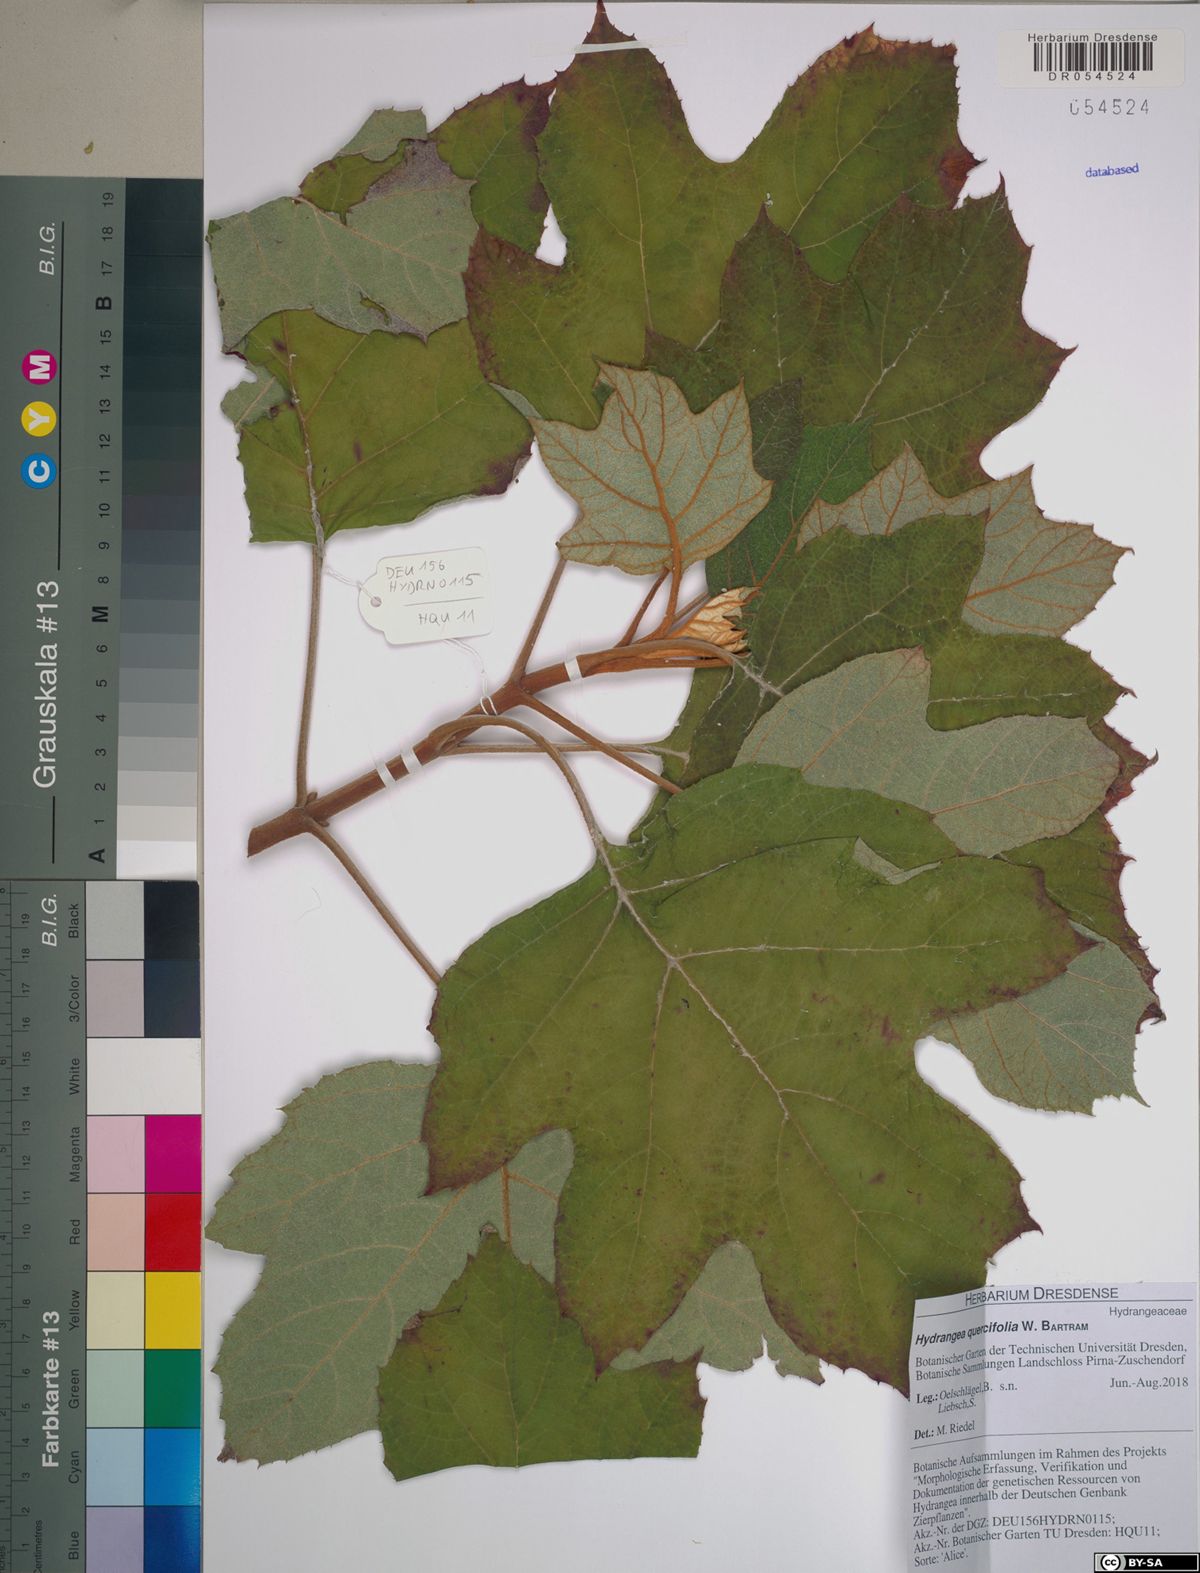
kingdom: Plantae
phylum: Tracheophyta
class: Magnoliopsida
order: Cornales
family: Hydrangeaceae
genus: Hydrangea
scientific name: Hydrangea quercifolia
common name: Oak-leaf hydrangea
